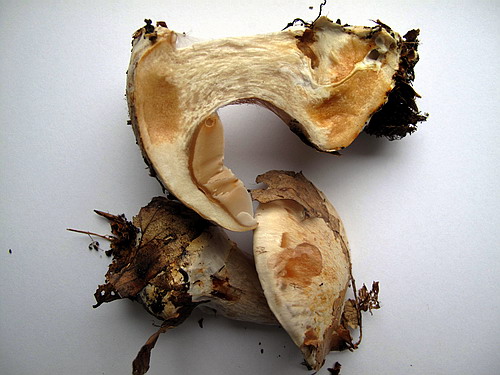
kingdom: Fungi
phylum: Basidiomycota
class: Agaricomycetes
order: Agaricales
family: Cortinariaceae
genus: Cortinarius
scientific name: Cortinarius foetens
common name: stribet slørhat
